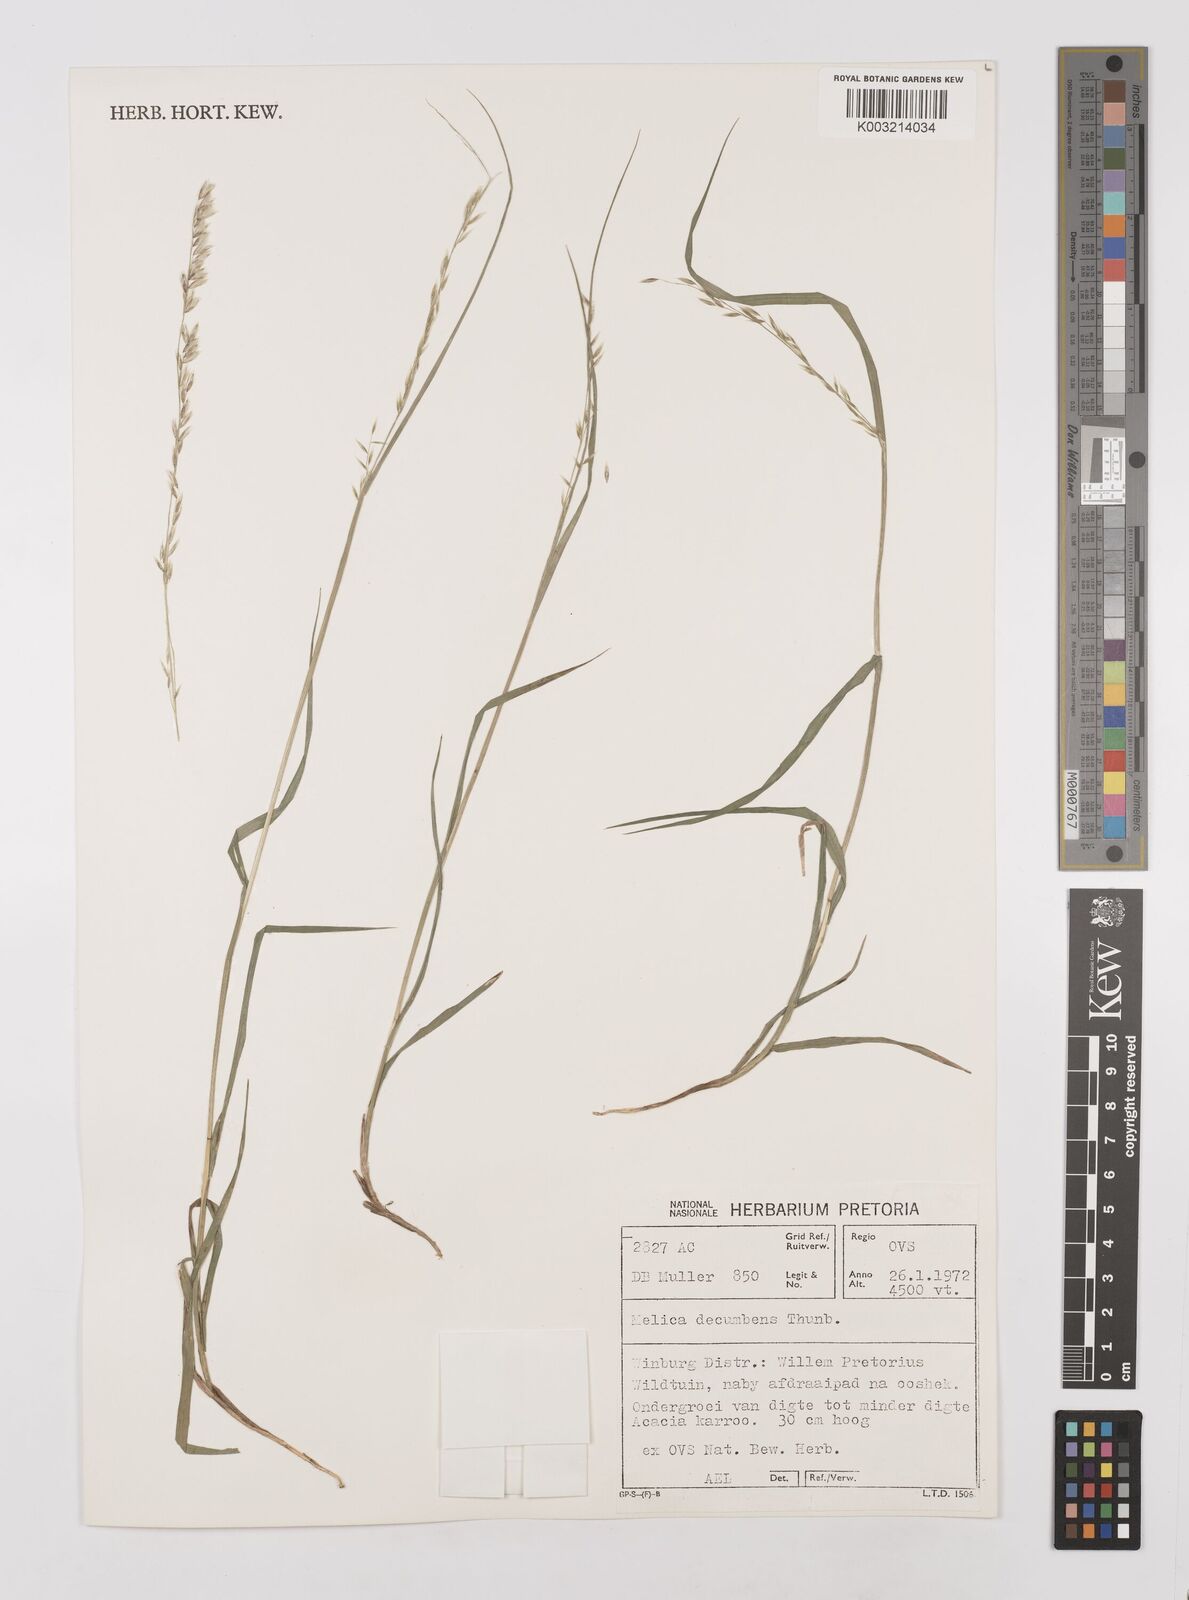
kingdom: Plantae
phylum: Tracheophyta
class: Liliopsida
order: Poales
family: Poaceae
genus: Melica
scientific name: Melica dendroides
